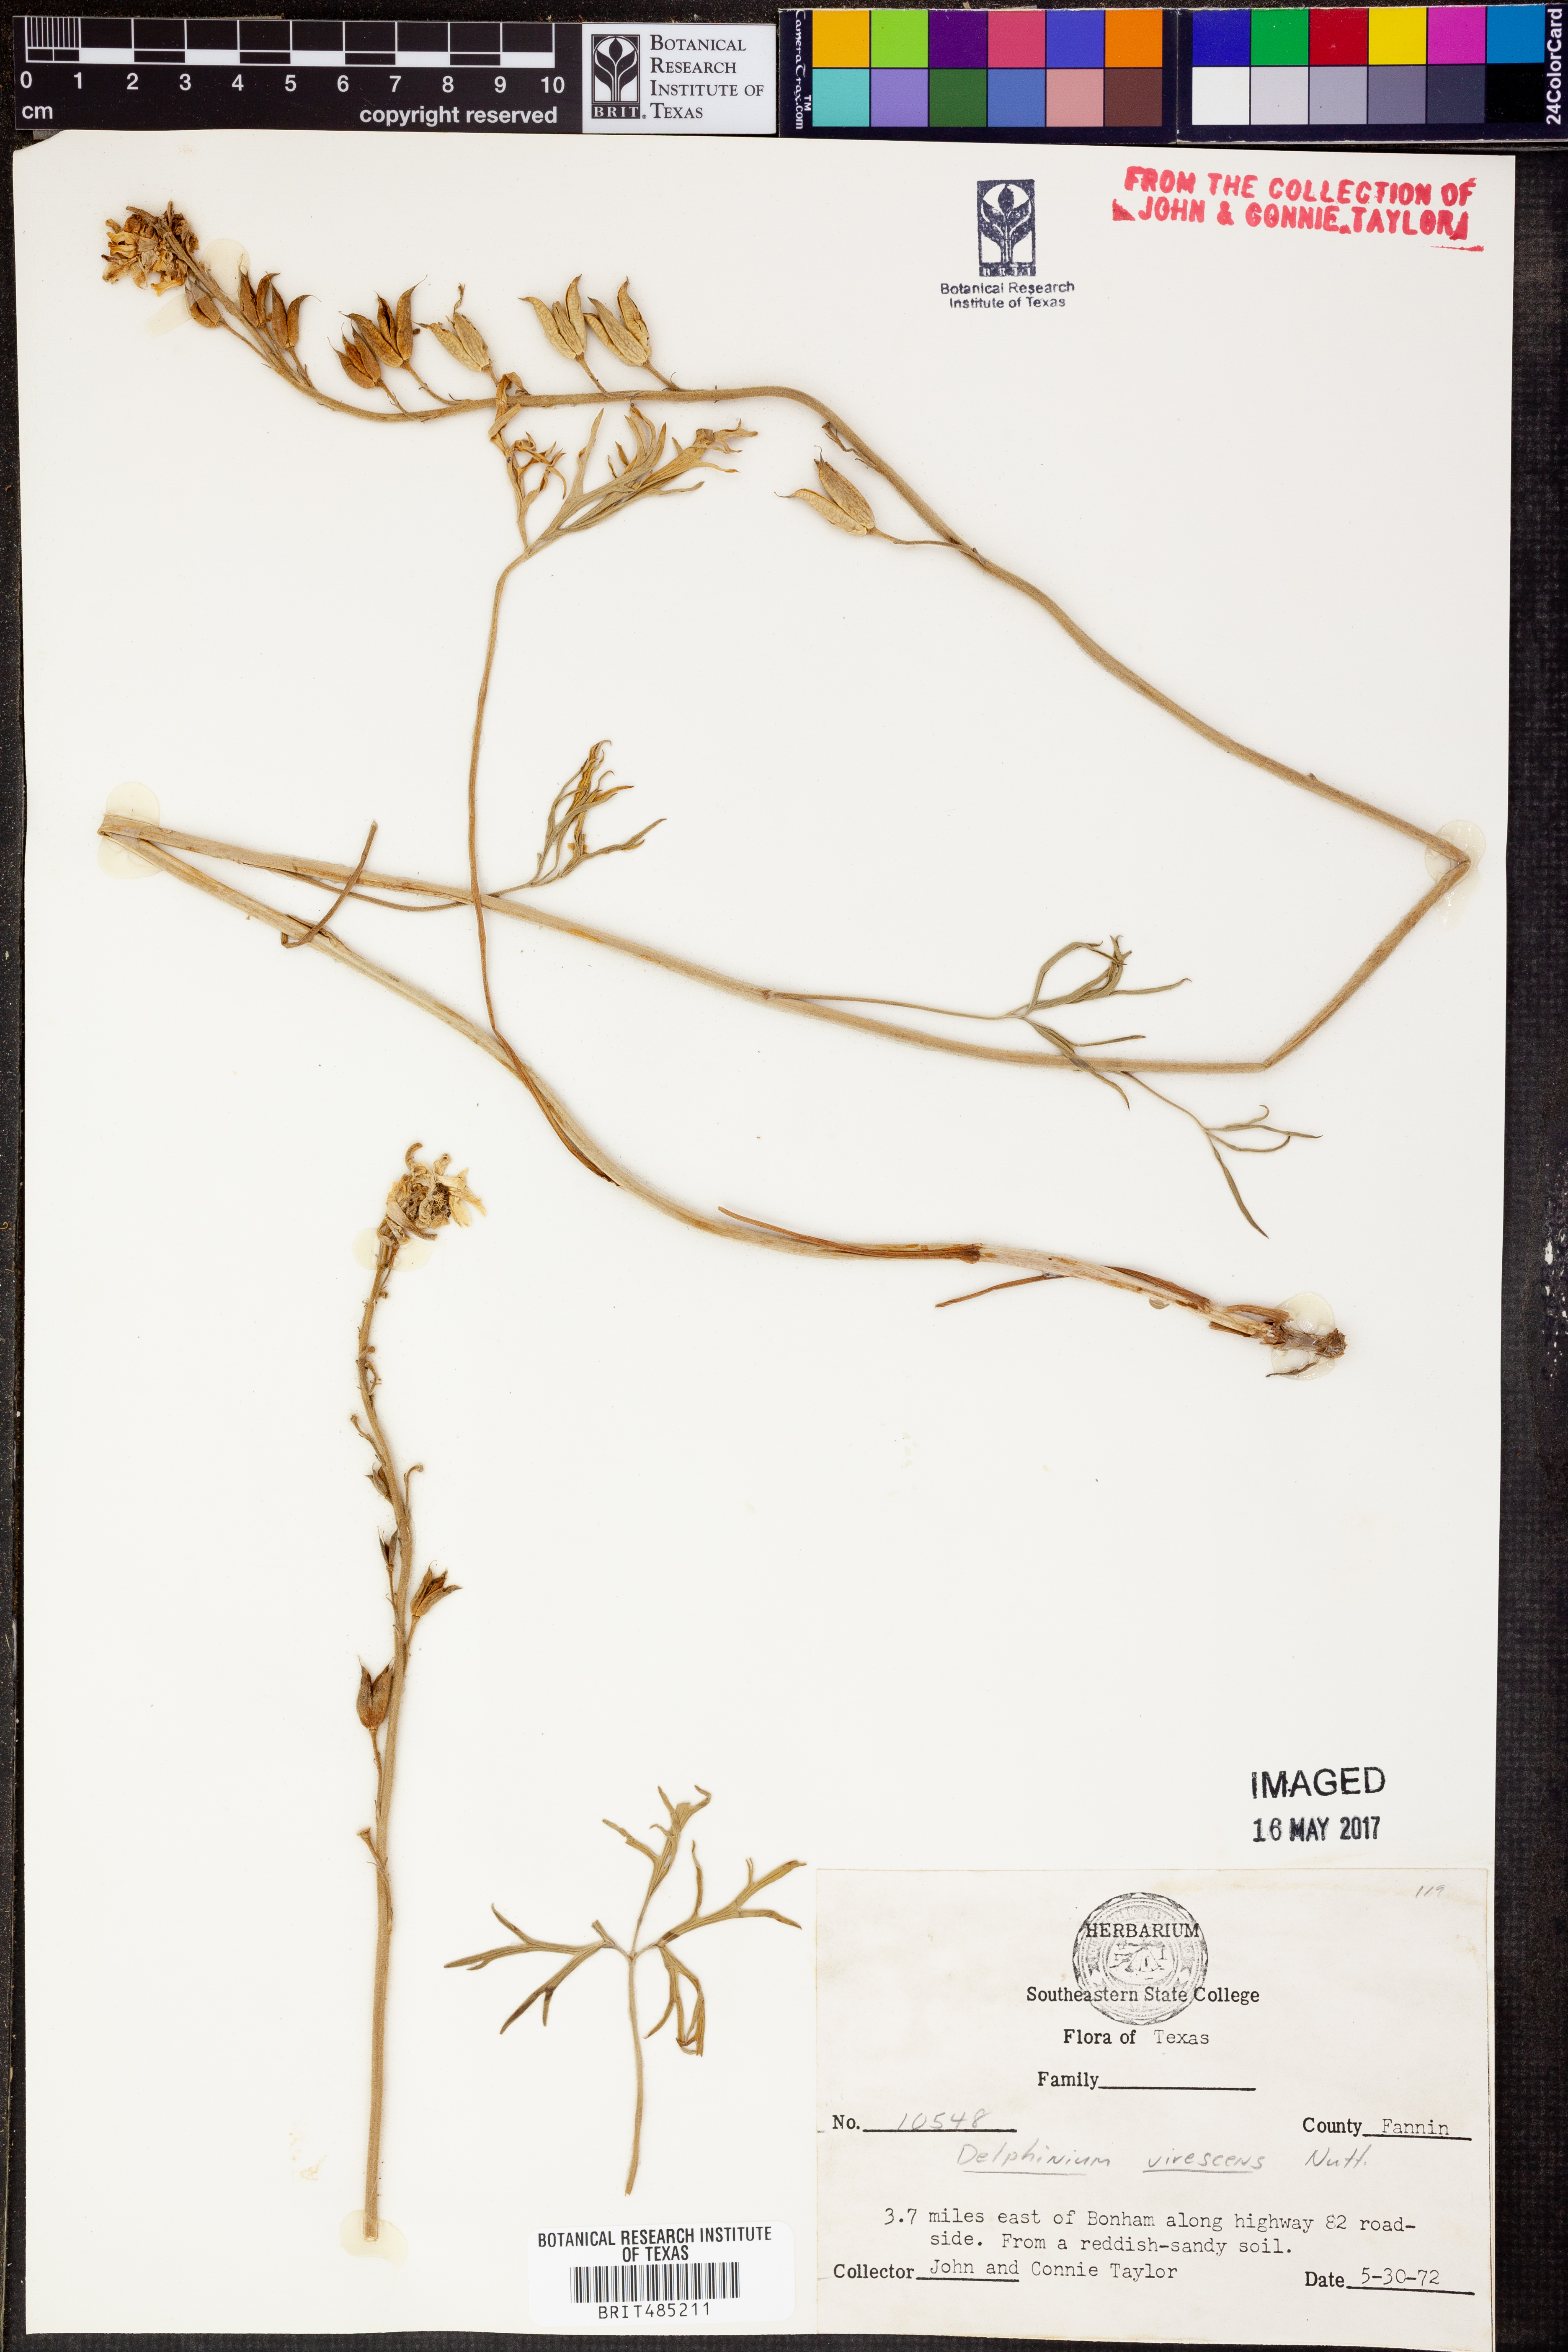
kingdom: Plantae
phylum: Tracheophyta
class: Magnoliopsida
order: Ranunculales
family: Ranunculaceae
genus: Delphinium
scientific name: Delphinium carolinianum
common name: Carolina larkspur
